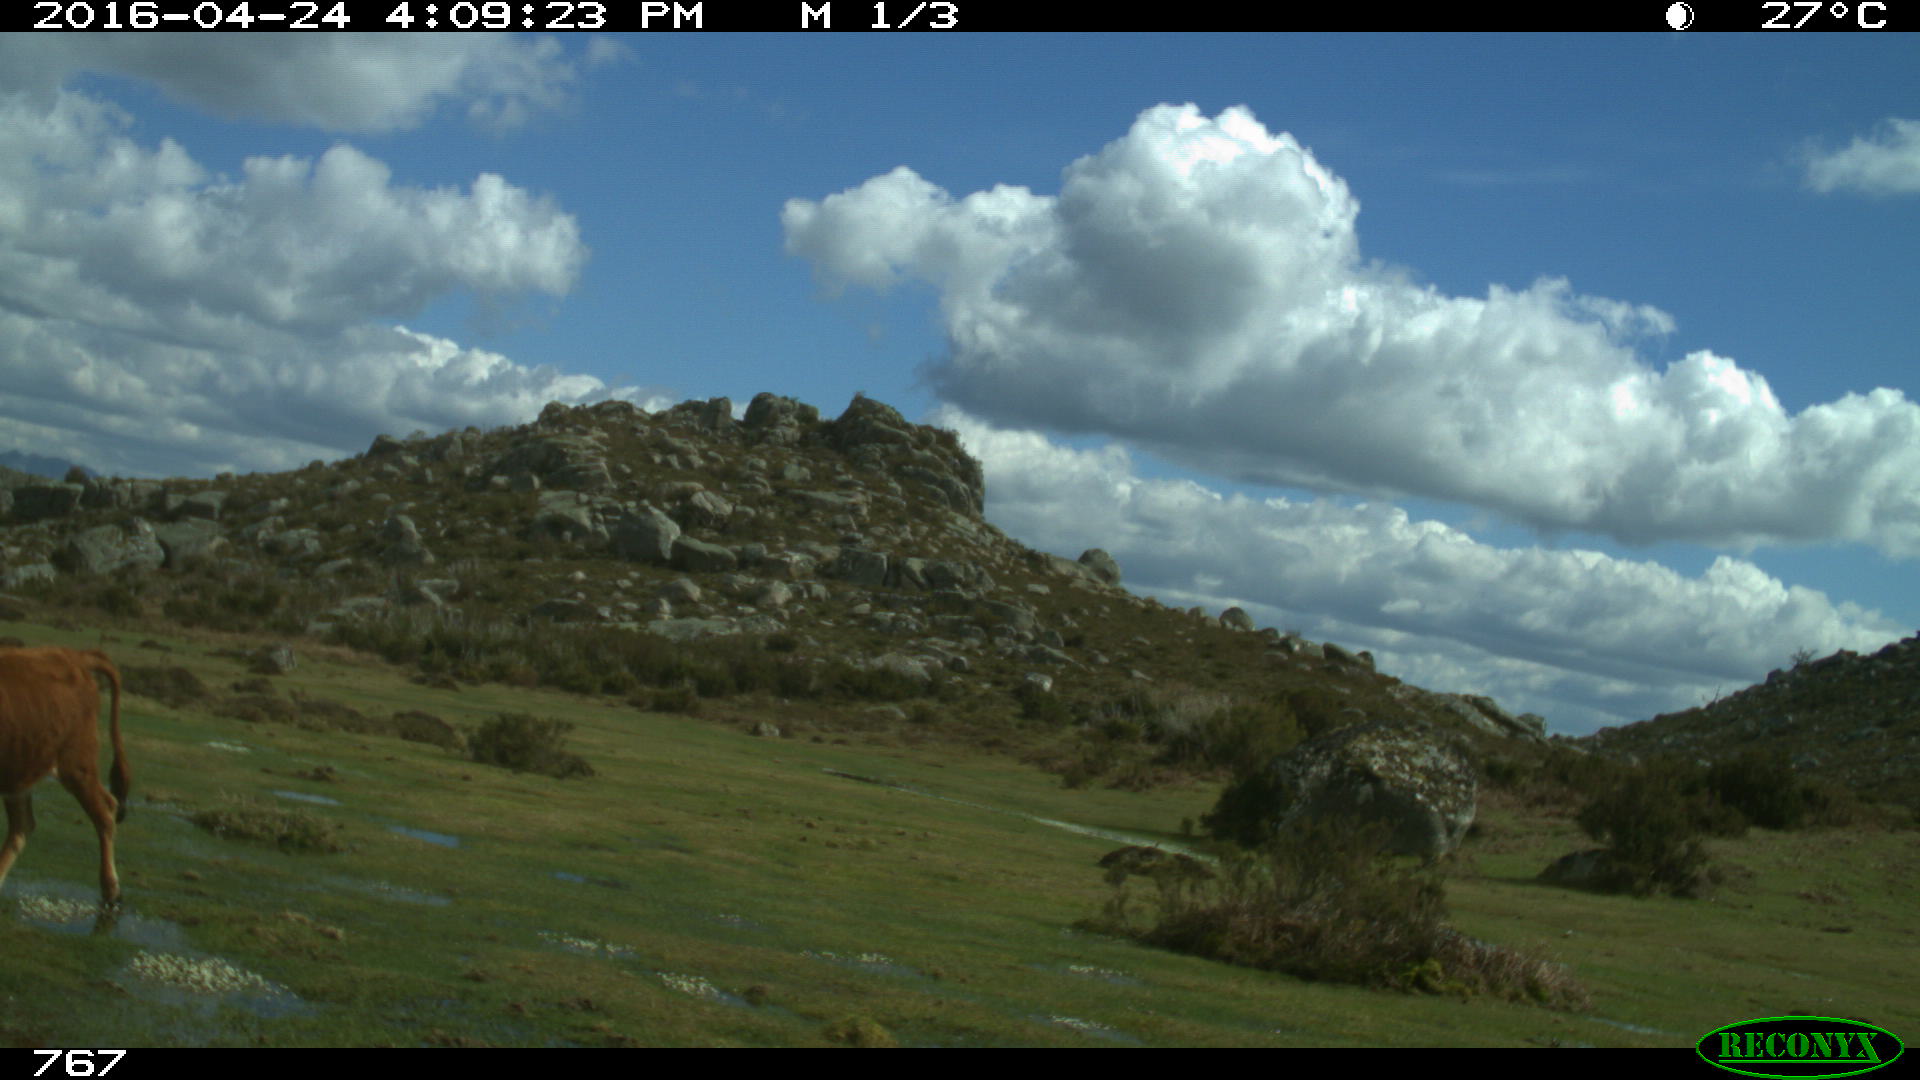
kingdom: Animalia
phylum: Chordata
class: Mammalia
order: Artiodactyla
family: Bovidae
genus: Bos
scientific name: Bos taurus
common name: Domesticated cattle
